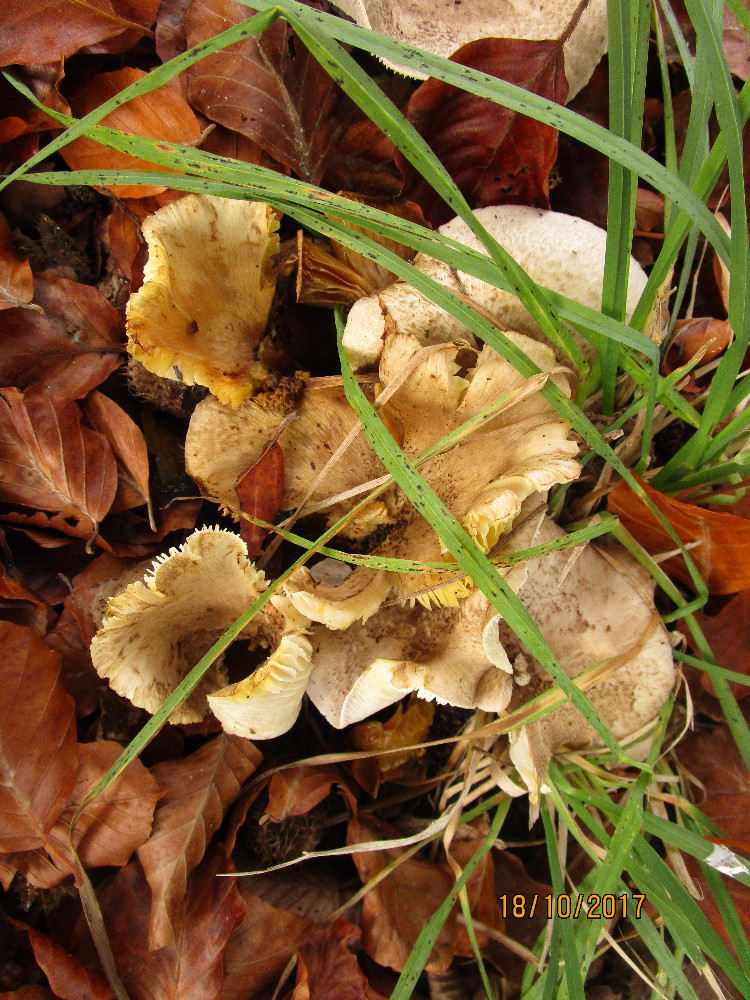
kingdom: Fungi
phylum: Basidiomycota
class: Agaricomycetes
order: Agaricales
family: Tricholomataceae
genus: Tricholoma
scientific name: Tricholoma scalpturatum
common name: gulplettet ridderhat
